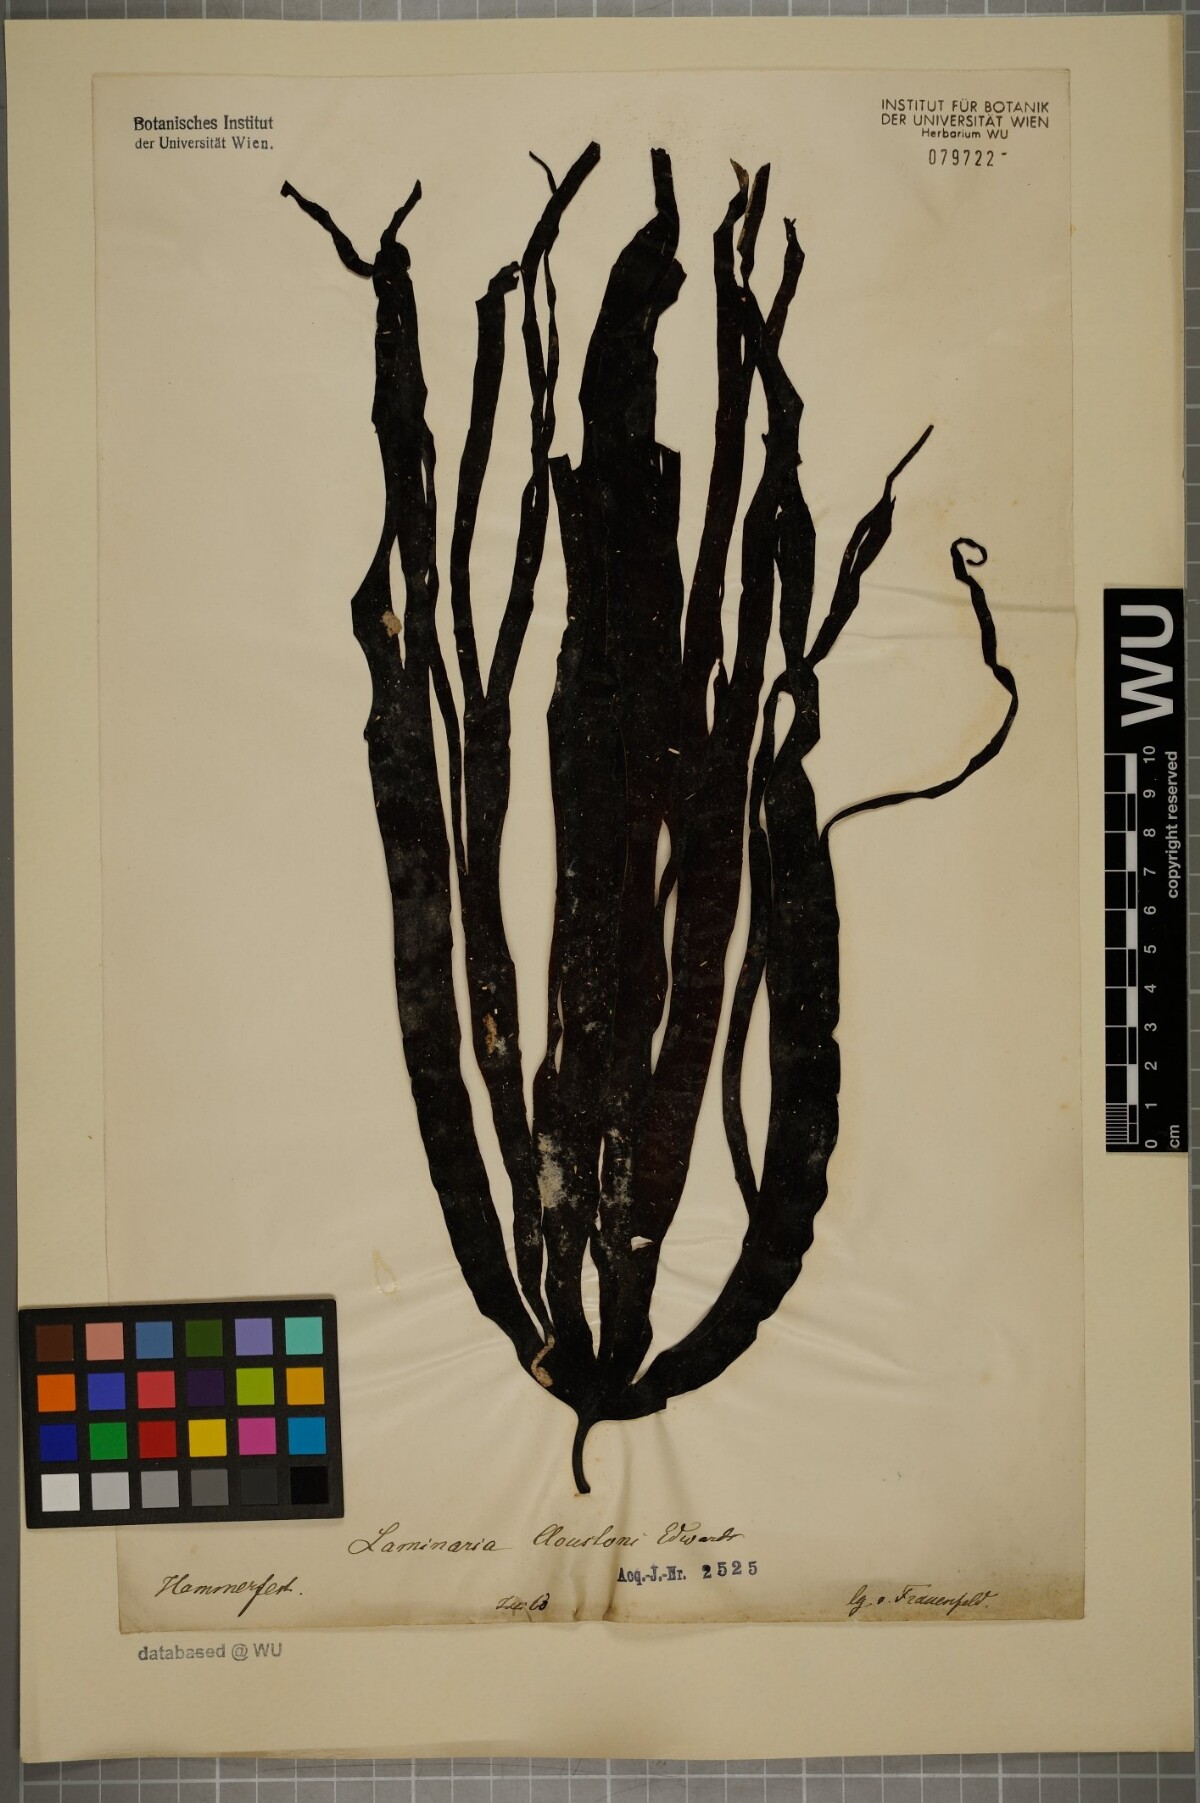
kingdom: Chromista
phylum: Ochrophyta
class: Phaeophyceae
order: Laminariales
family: Laminariaceae
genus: Laminaria
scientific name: Laminaria hyperborea
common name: Cuvie
